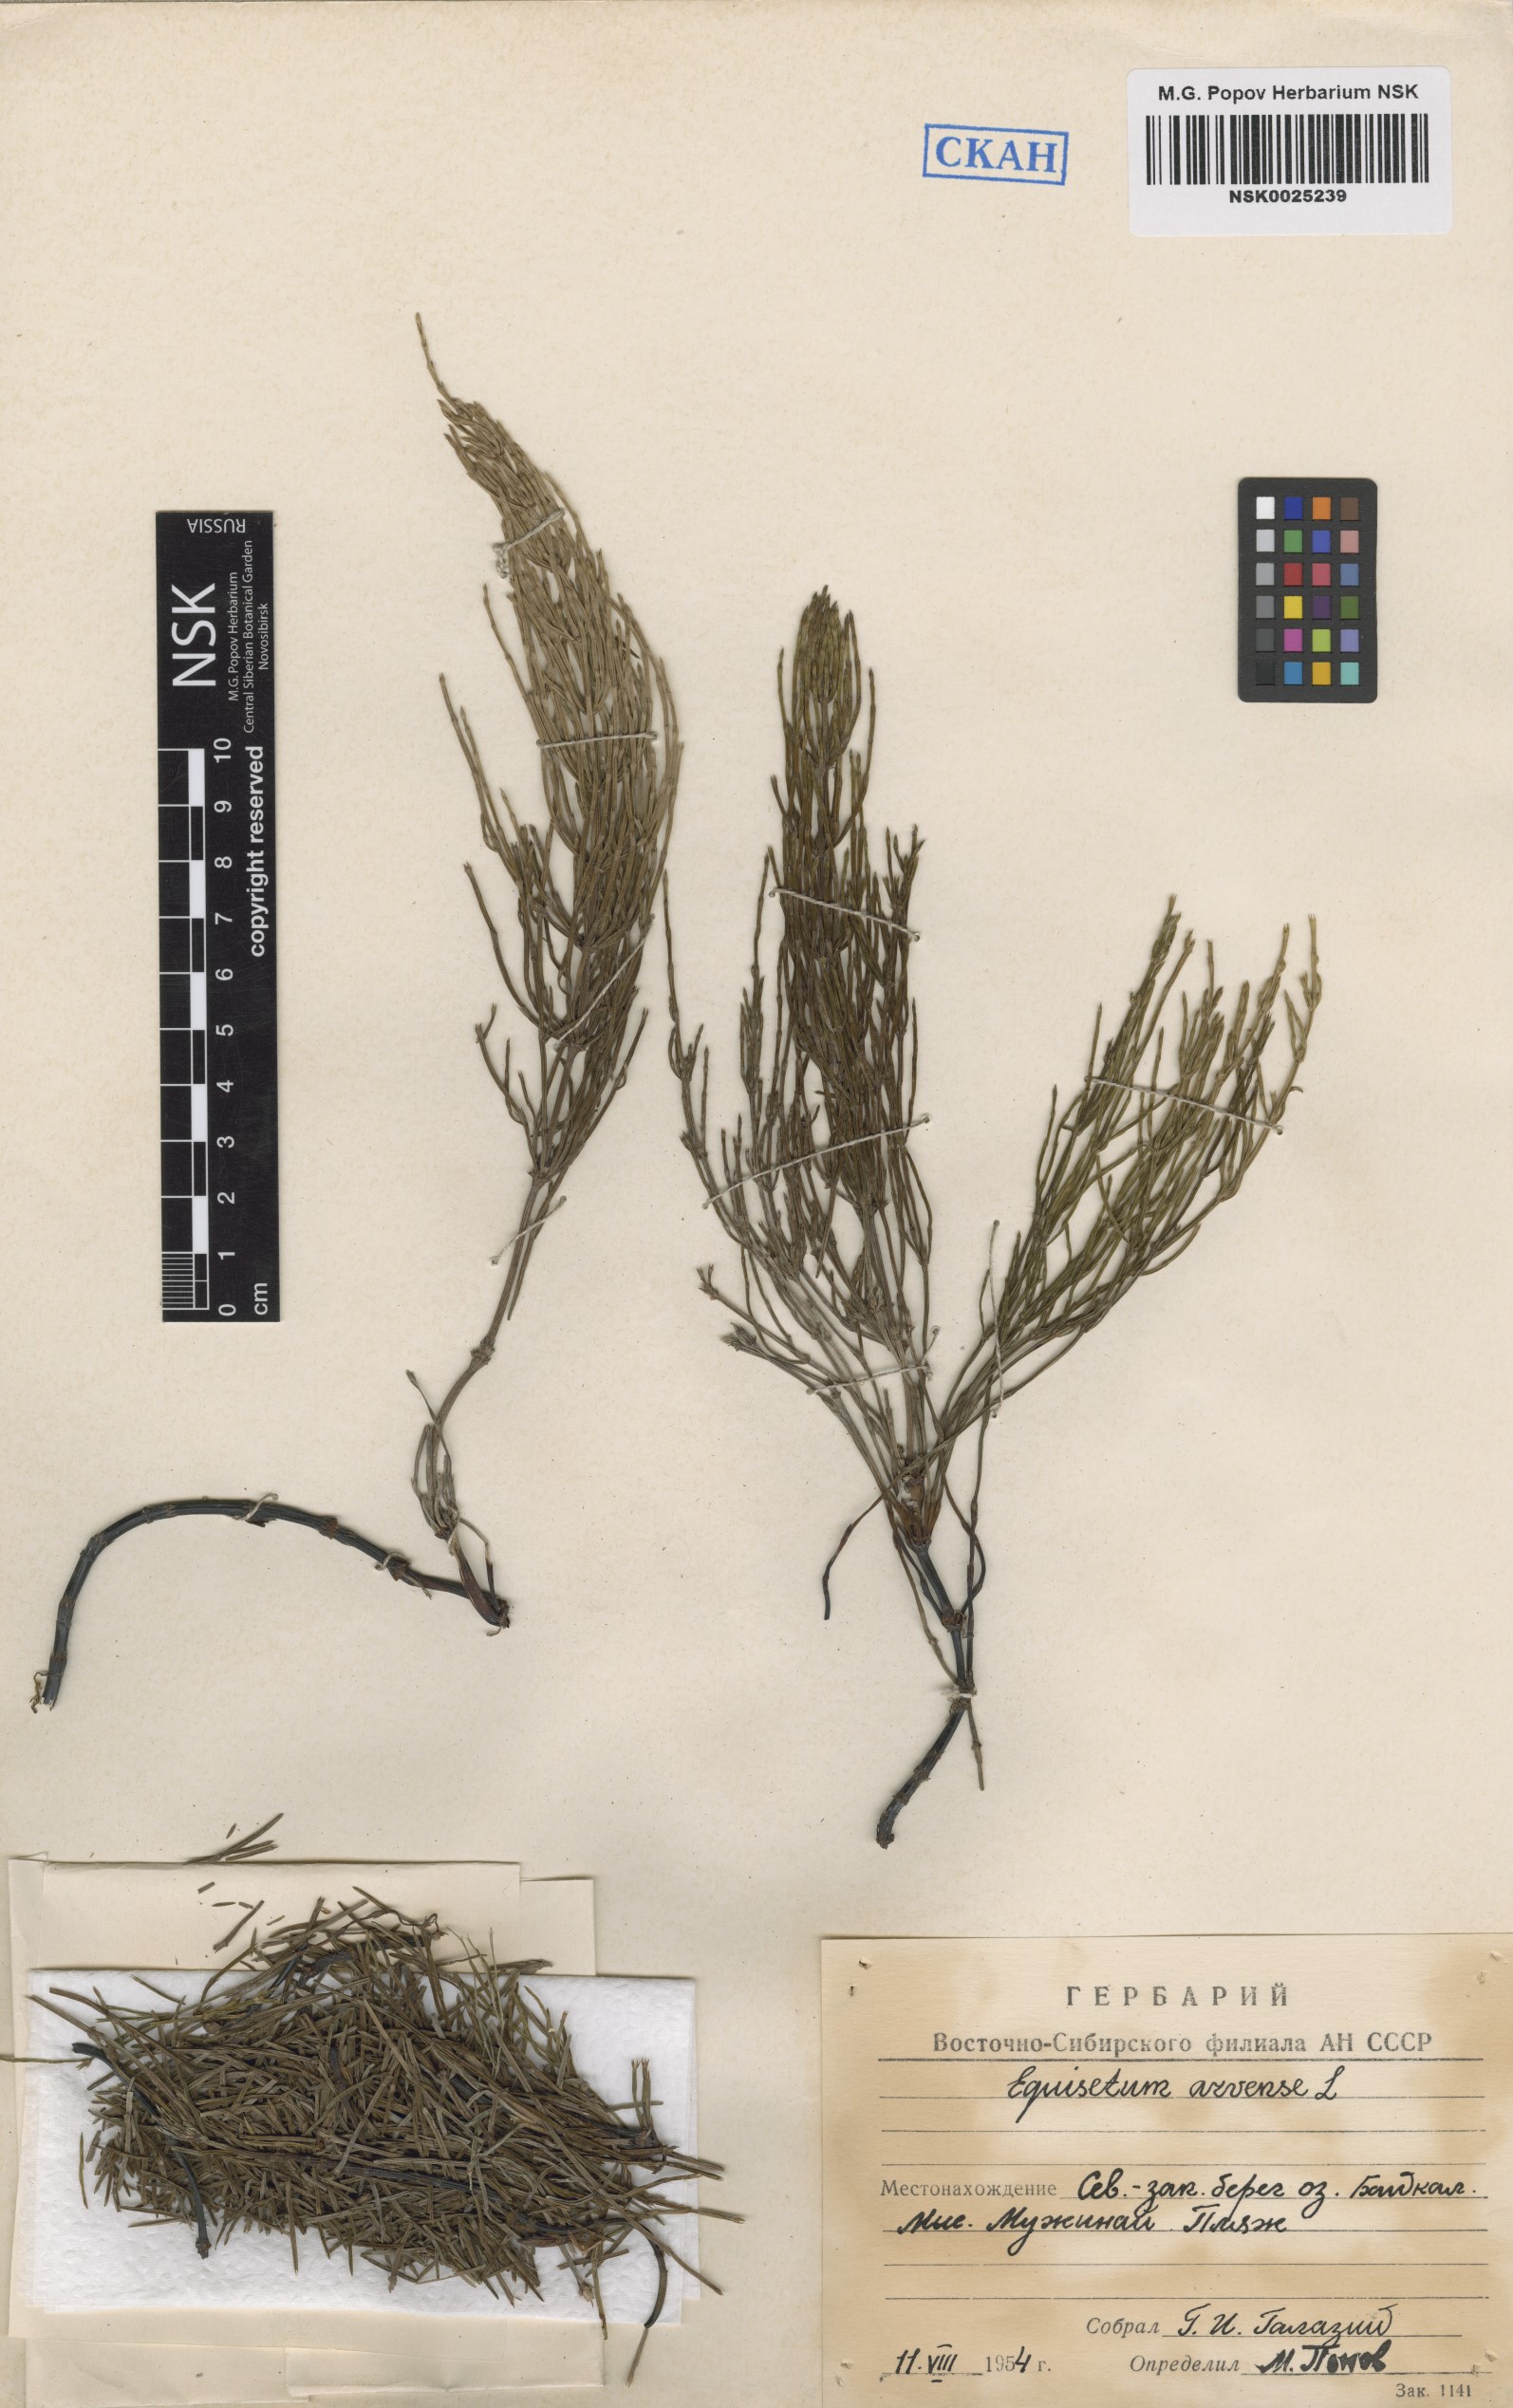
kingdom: Plantae
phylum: Tracheophyta
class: Polypodiopsida
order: Equisetales
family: Equisetaceae
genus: Equisetum
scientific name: Equisetum arvense
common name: Field horsetail
